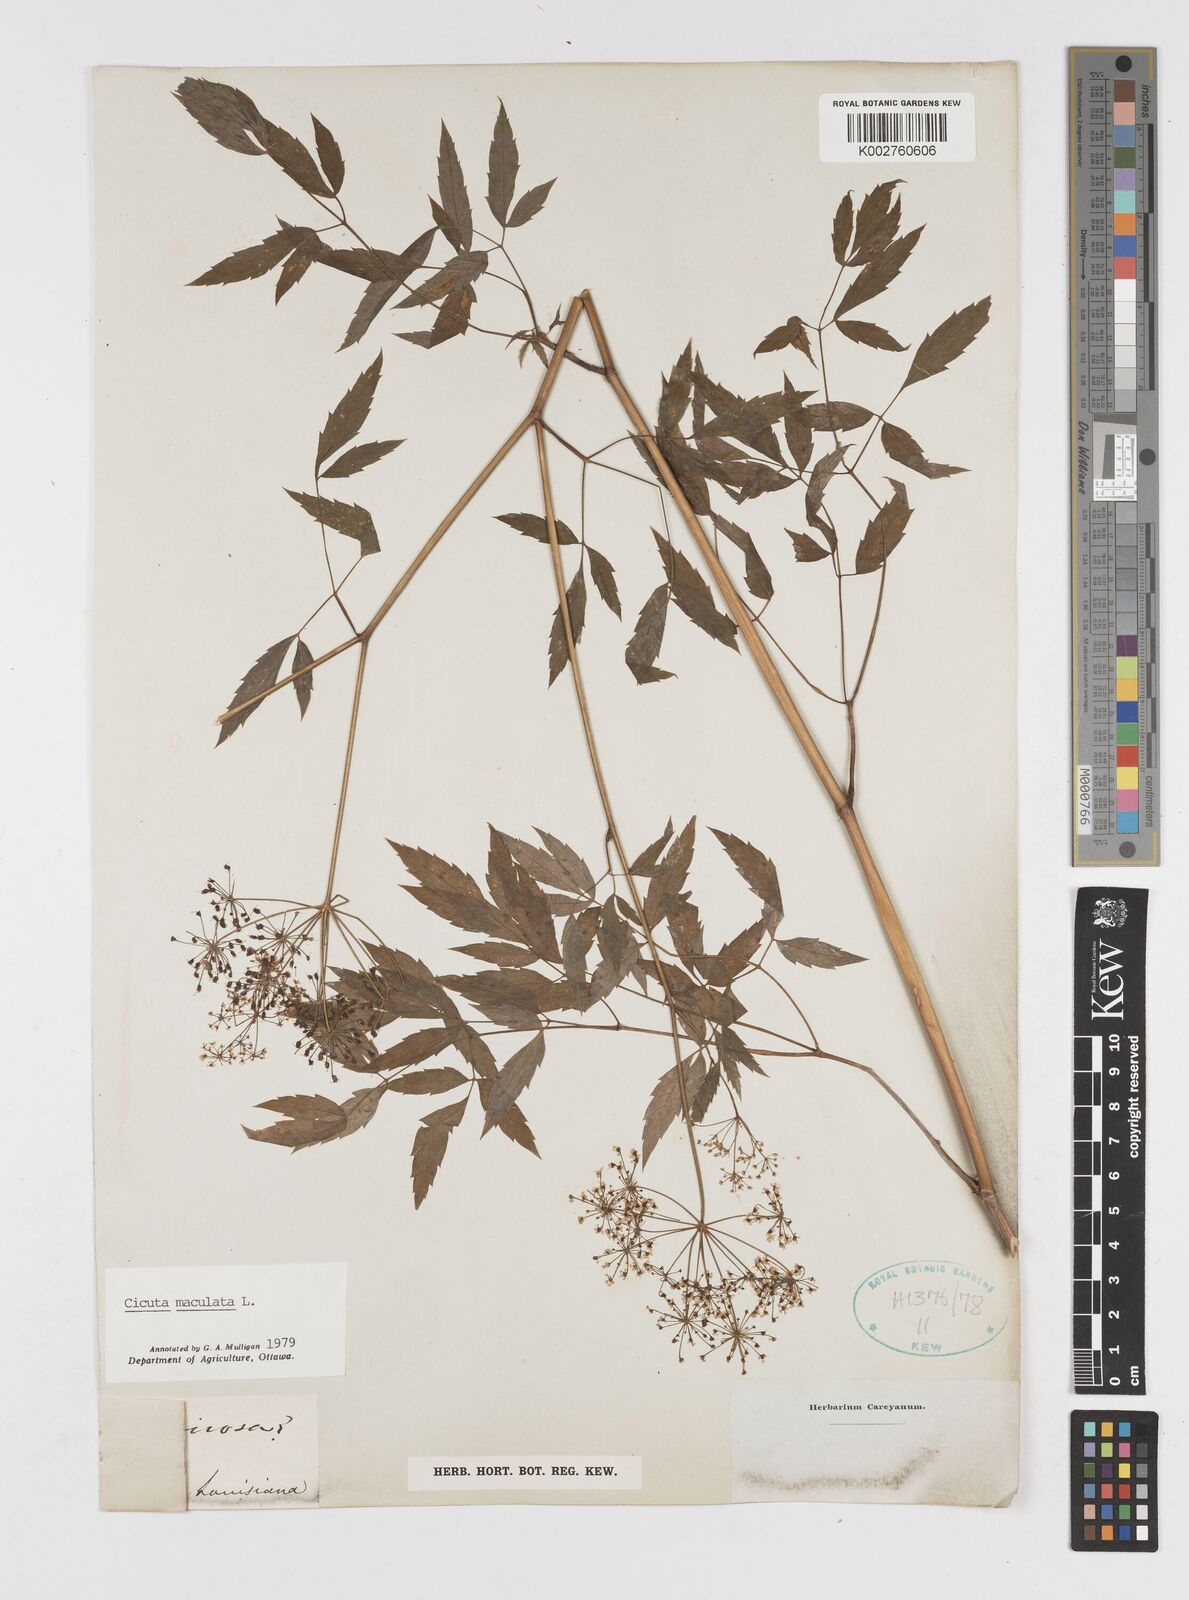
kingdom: Plantae
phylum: Tracheophyta
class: Magnoliopsida
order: Apiales
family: Apiaceae
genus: Cicuta
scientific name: Cicuta maculata
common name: Spotted cowbane
